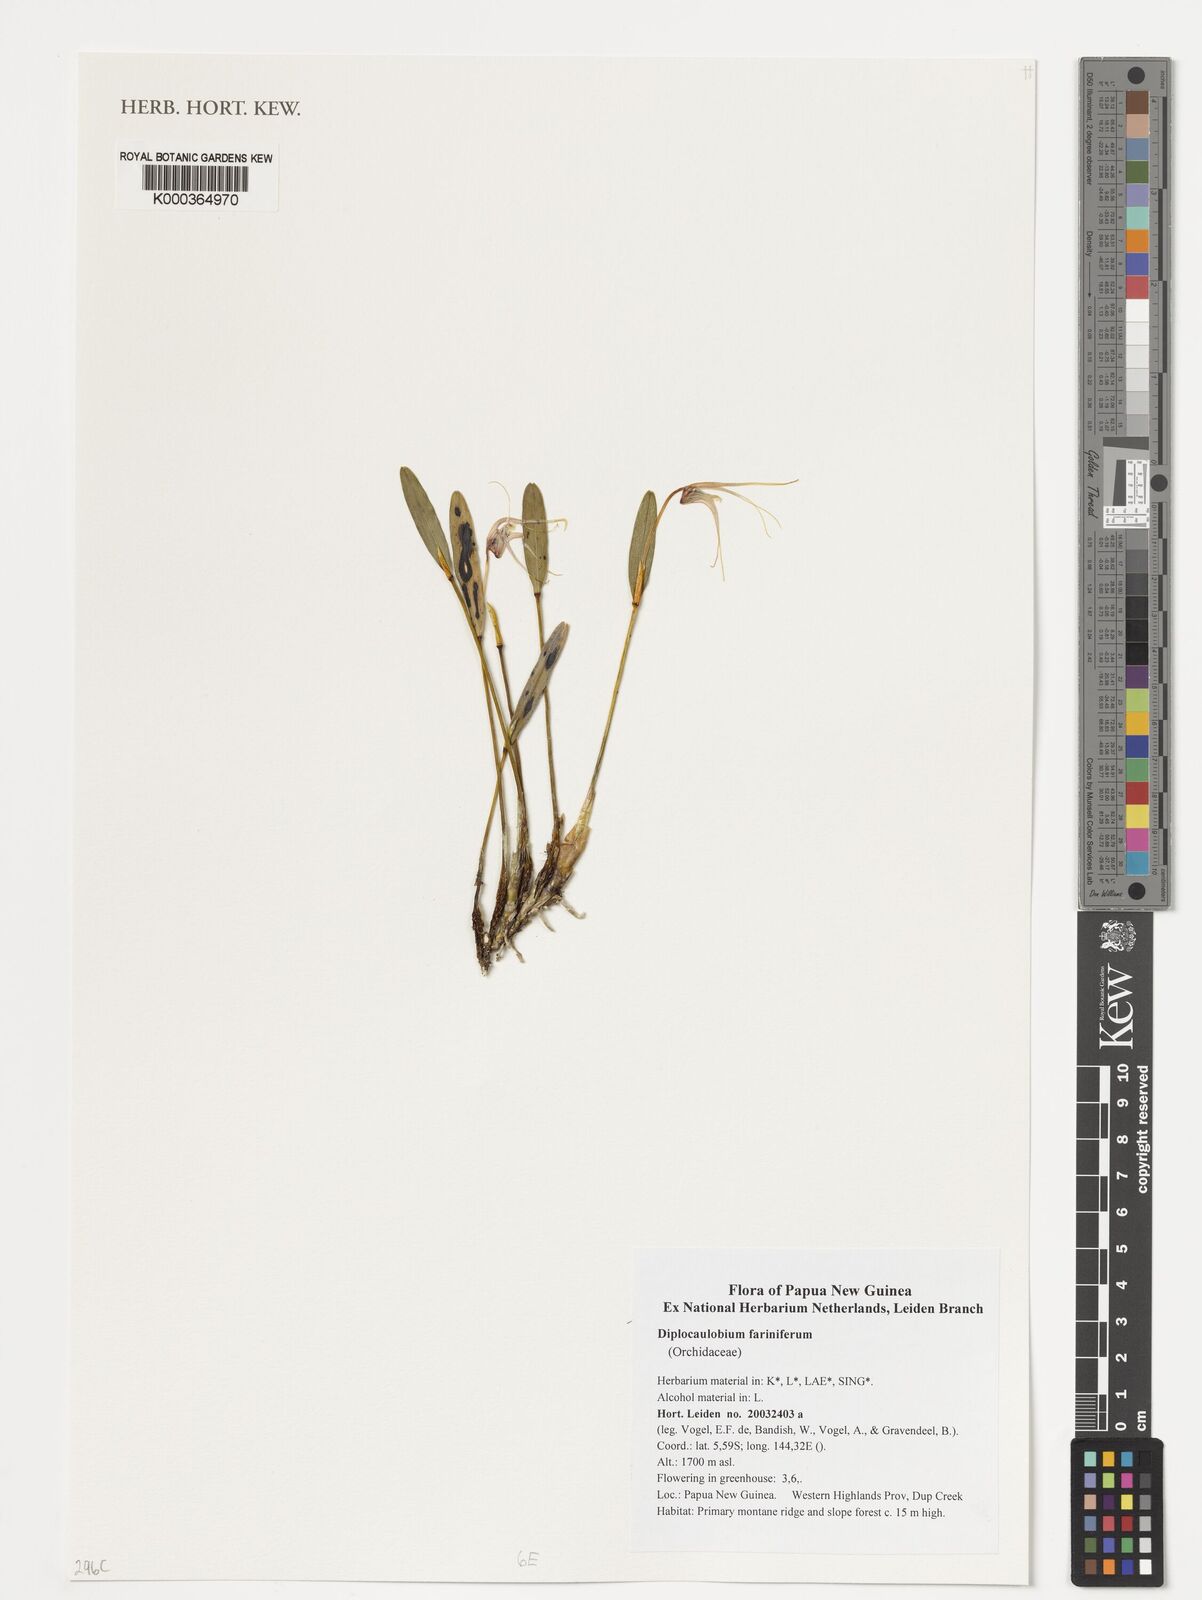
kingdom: Plantae
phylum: Tracheophyta
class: Liliopsida
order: Asparagales
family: Orchidaceae
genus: Dendrobium
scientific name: Dendrobium fariniferum
